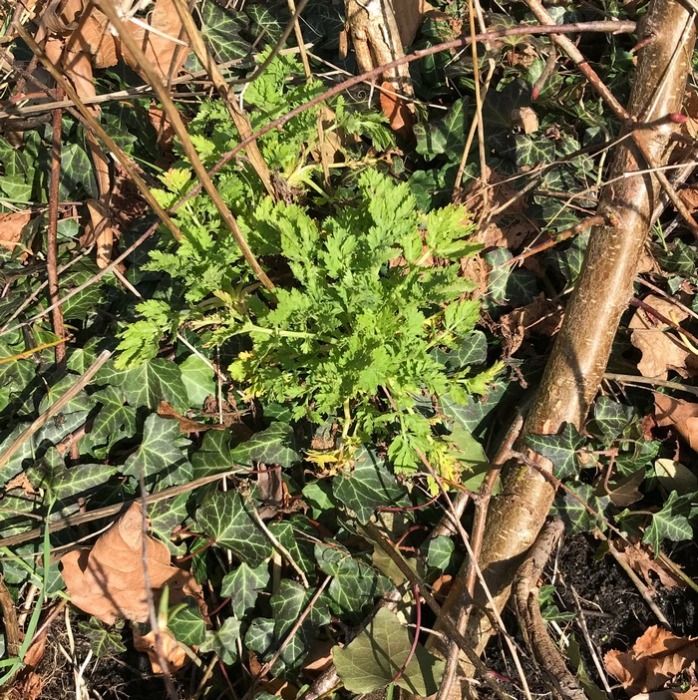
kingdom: Plantae
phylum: Tracheophyta
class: Magnoliopsida
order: Asterales
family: Asteraceae
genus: Tanacetum
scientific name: Tanacetum parthenium
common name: Matrem
